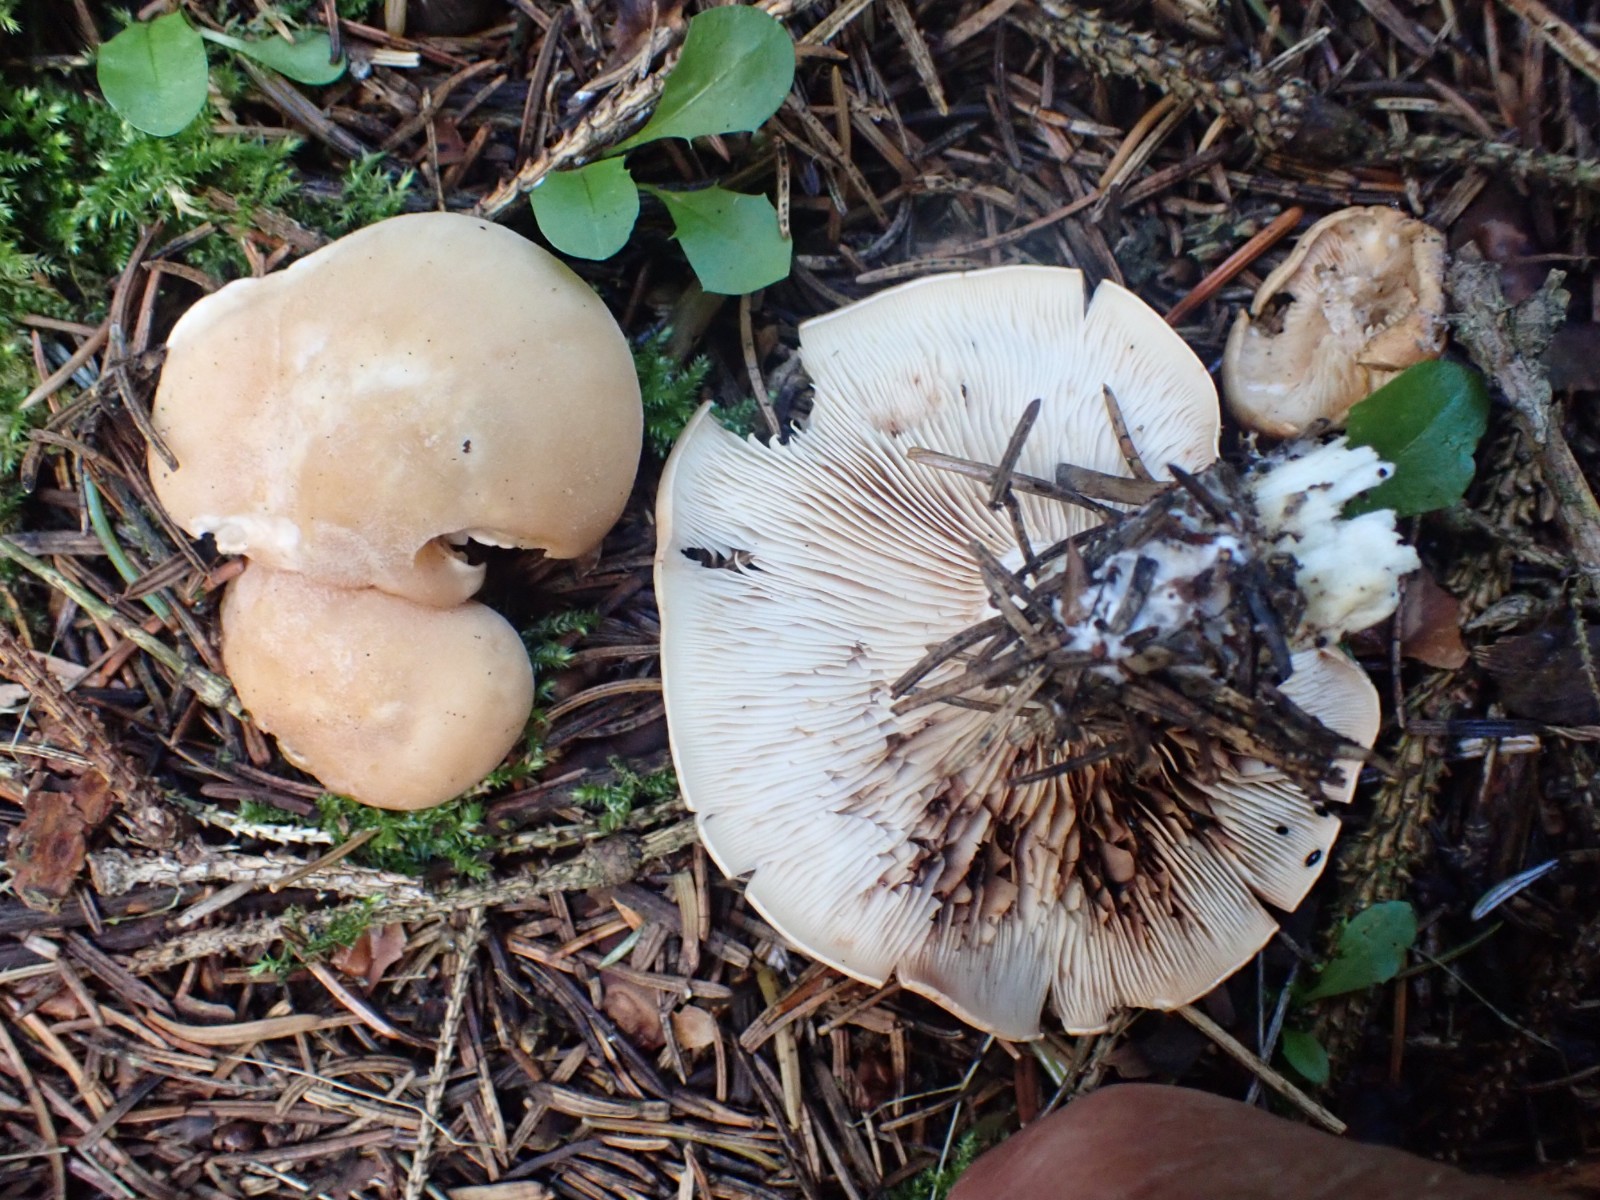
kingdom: Fungi
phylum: Basidiomycota
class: Agaricomycetes
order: Agaricales
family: Entolomataceae
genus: Clitopilus
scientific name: Clitopilus geminus
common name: kødfarvet troldhat
